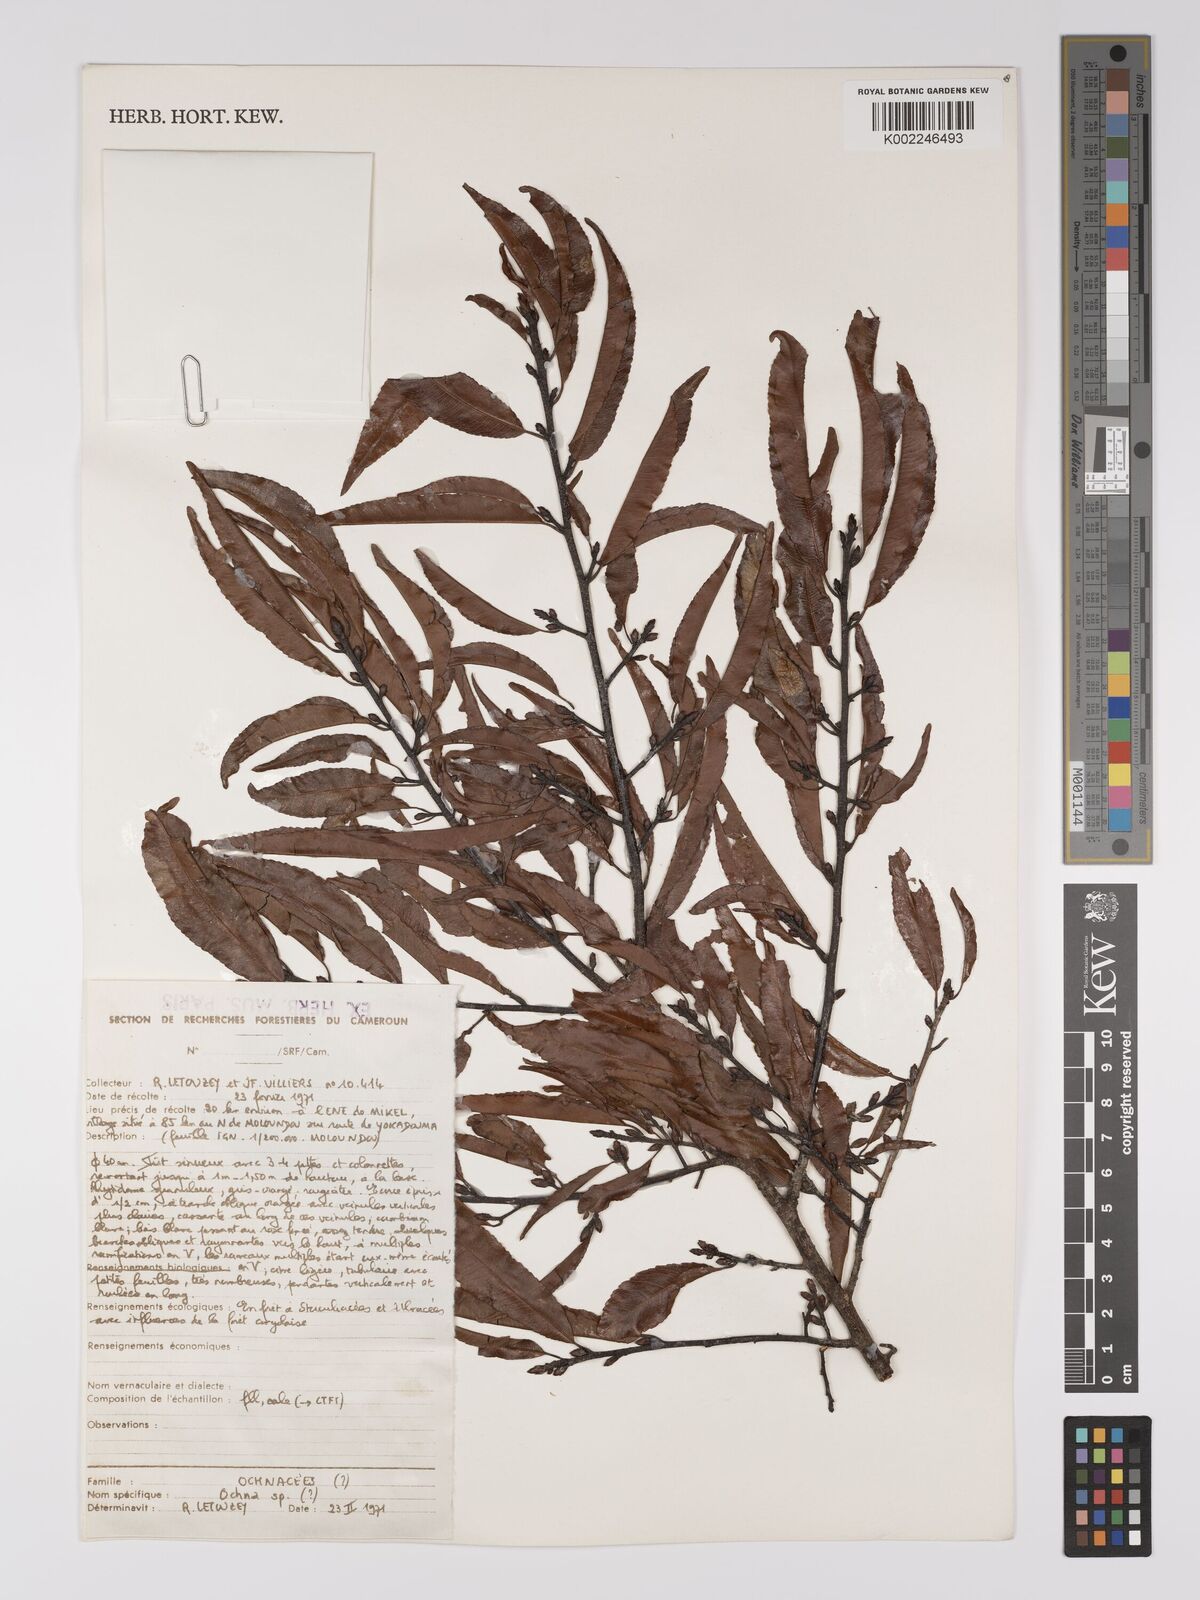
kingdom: Plantae
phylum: Tracheophyta
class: Magnoliopsida
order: Malpighiales
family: Ochnaceae
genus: Ochna
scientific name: Ochna
